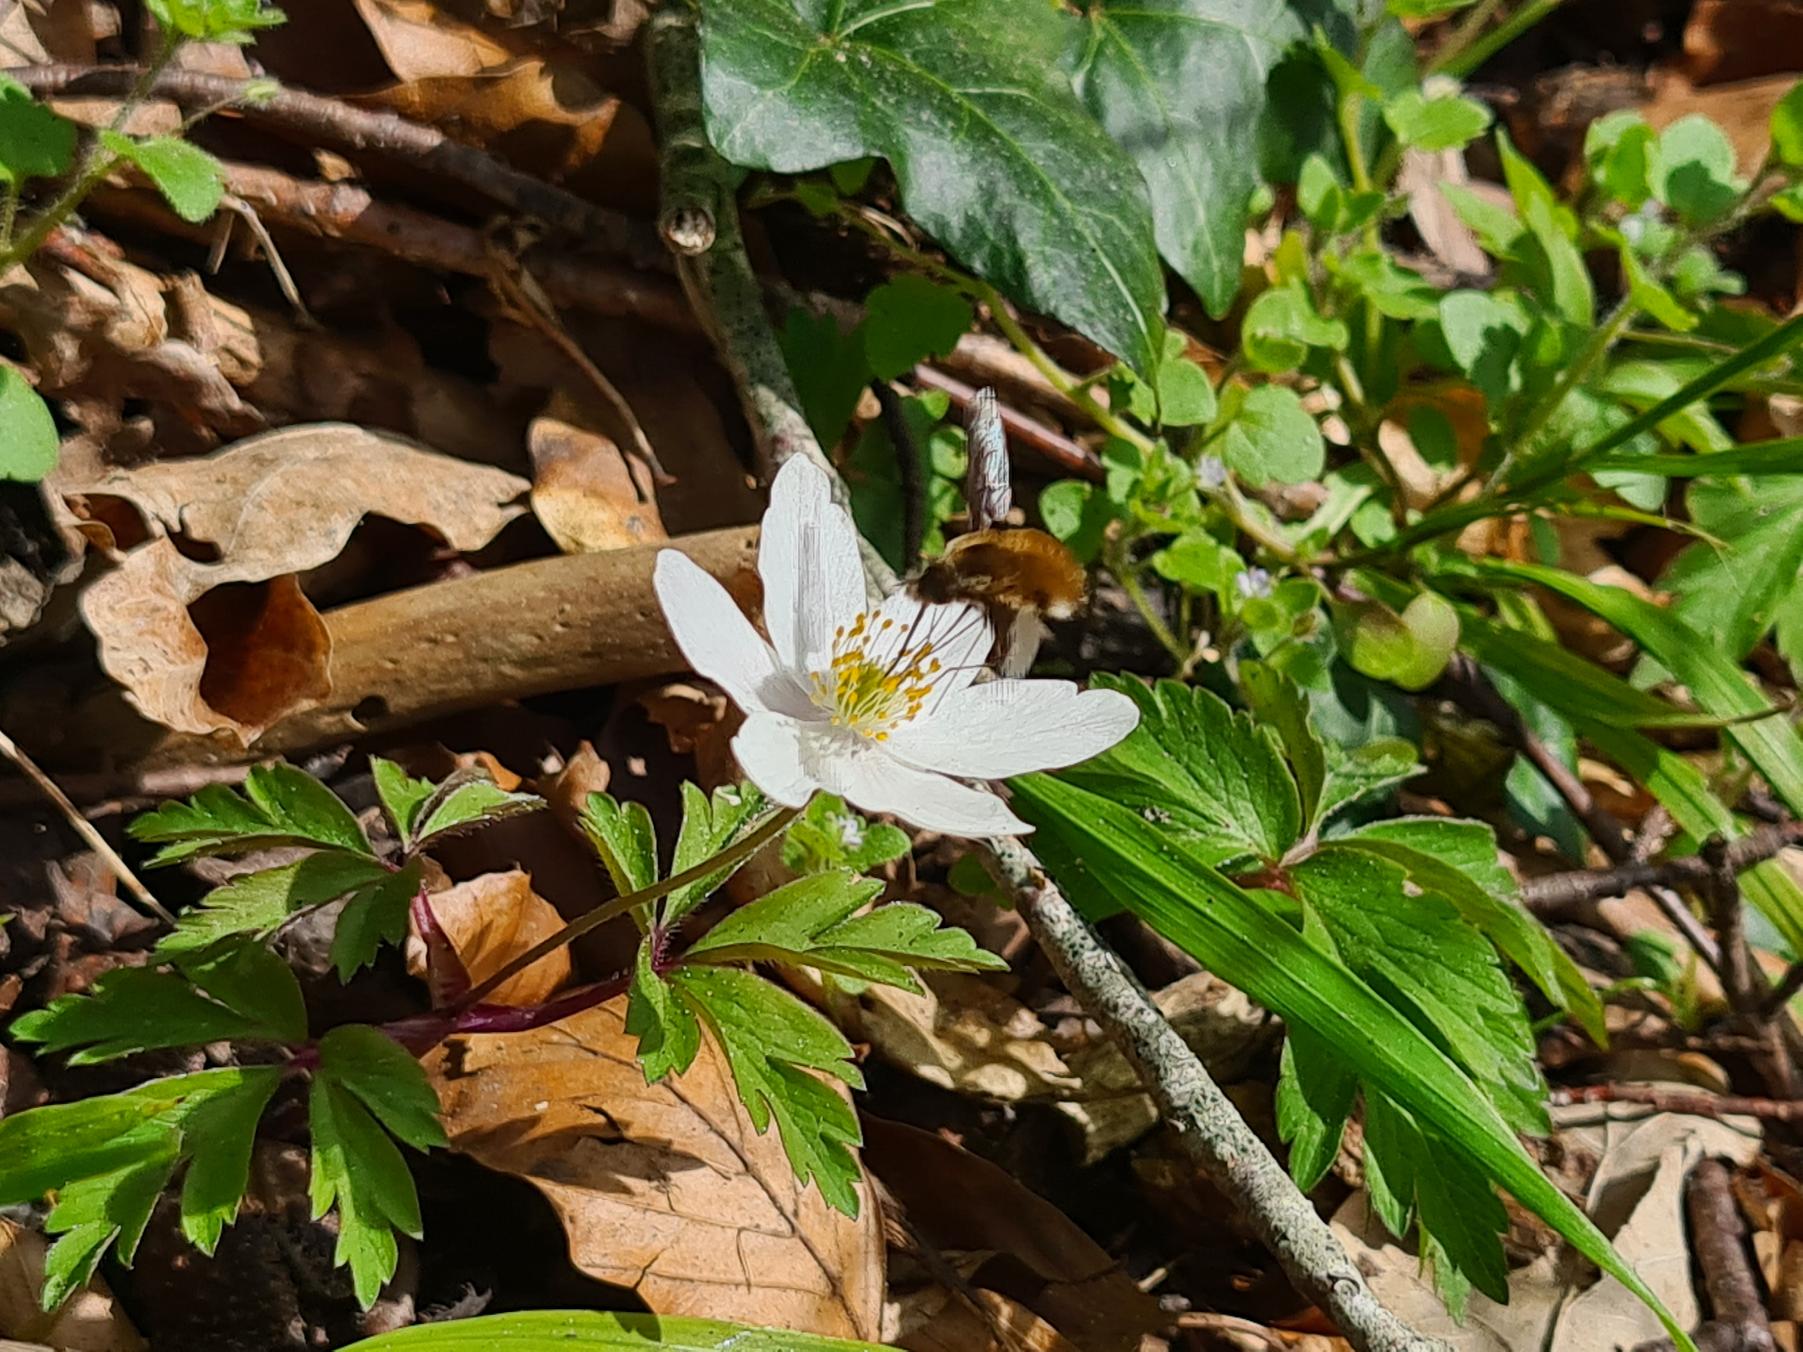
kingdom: Animalia
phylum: Arthropoda
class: Insecta
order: Diptera
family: Bombyliidae
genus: Bombylius
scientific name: Bombylius major
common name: Stor humleflue
